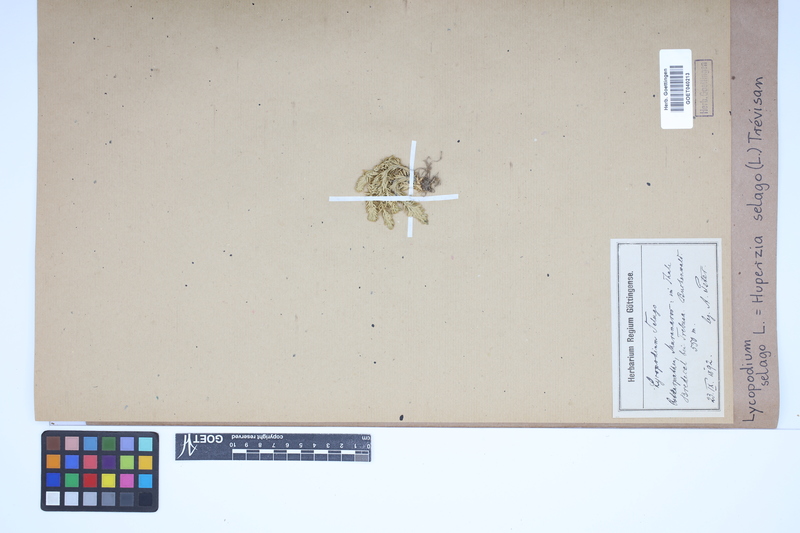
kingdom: Plantae
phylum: Tracheophyta
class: Lycopodiopsida
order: Lycopodiales
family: Lycopodiaceae
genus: Huperzia
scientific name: Huperzia selago
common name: Northern firmoss
